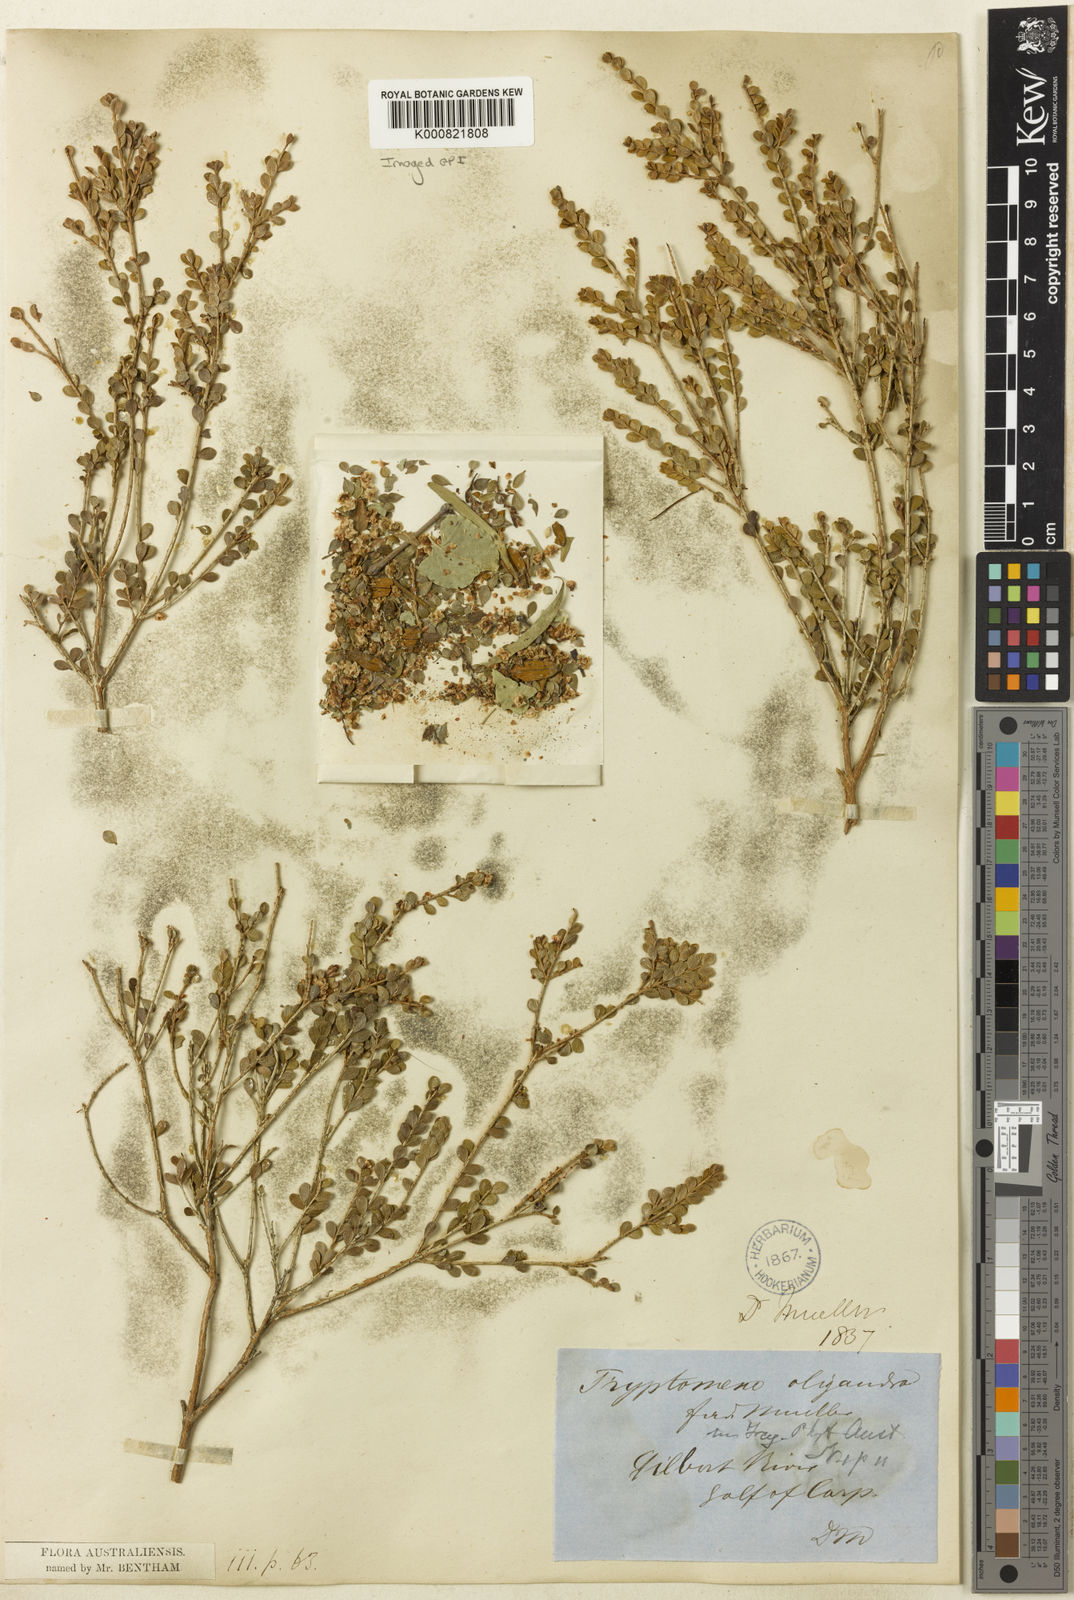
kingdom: Plantae
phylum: Tracheophyta
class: Magnoliopsida
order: Myrtales
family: Myrtaceae
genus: Thryptomene
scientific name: Thryptomene oligandra
